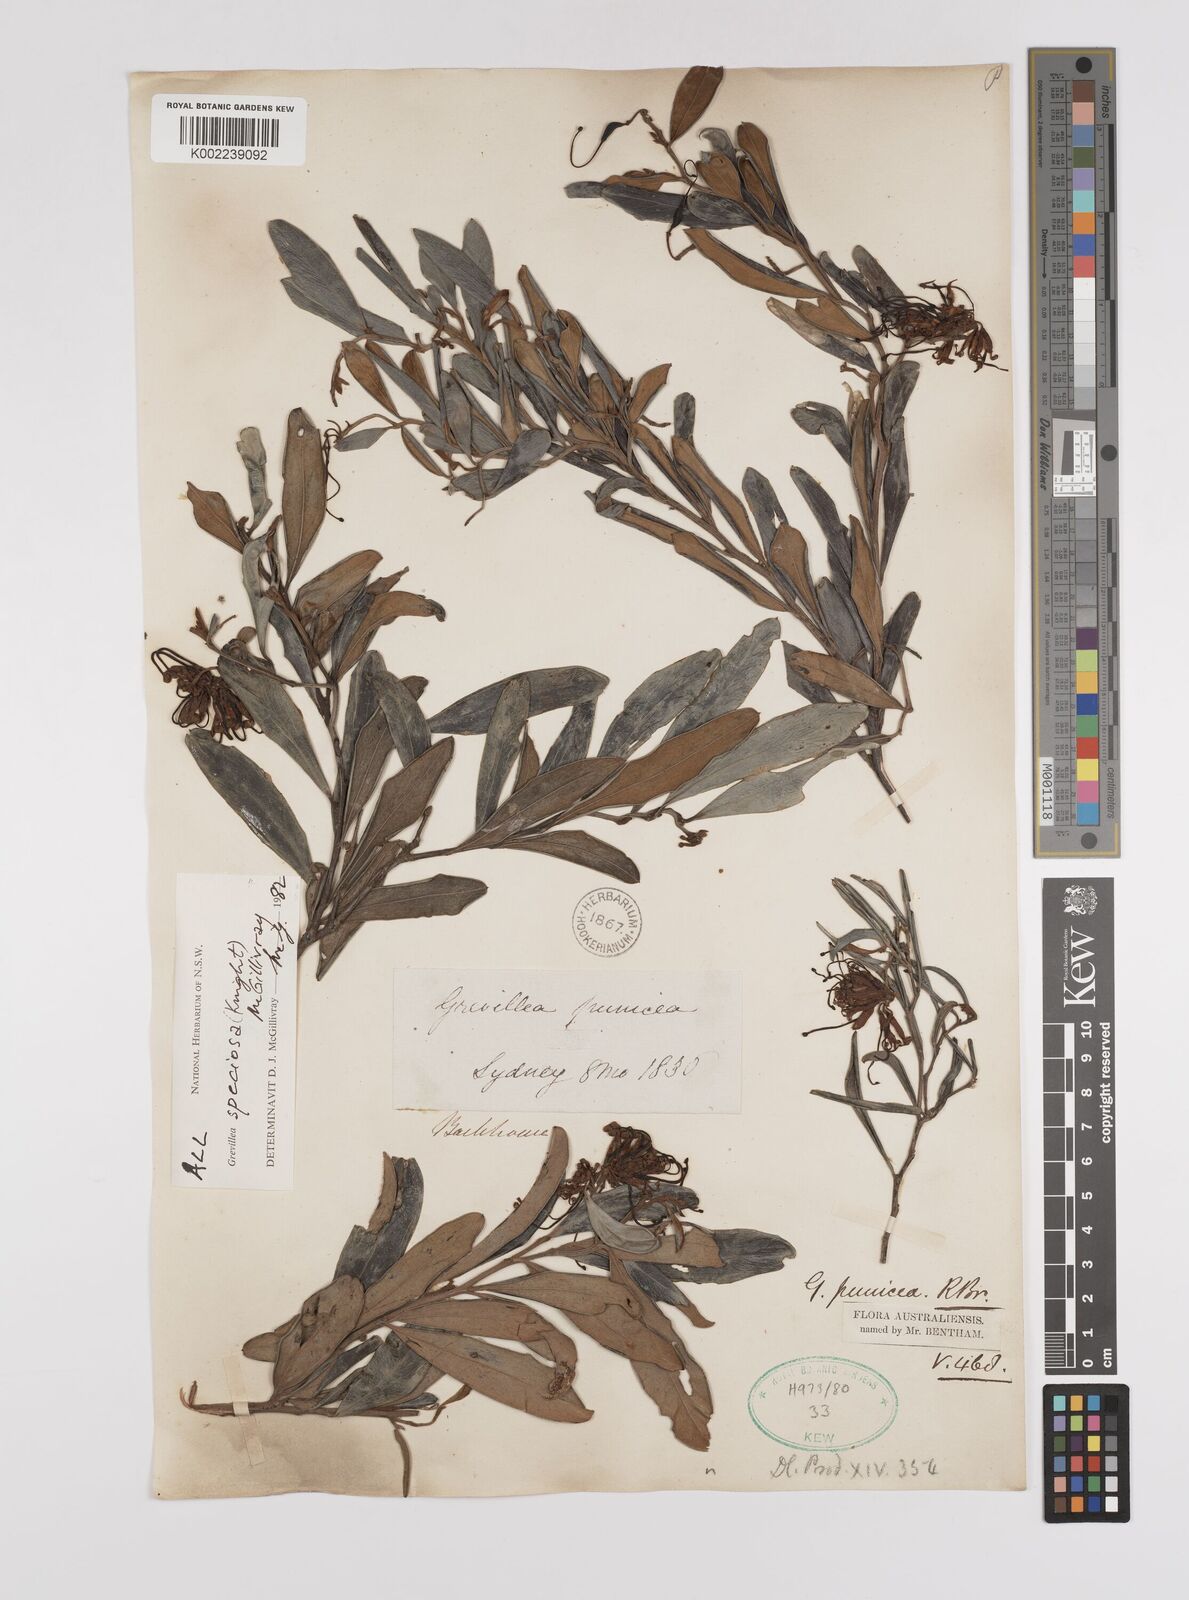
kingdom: Plantae
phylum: Tracheophyta
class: Magnoliopsida
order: Proteales
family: Proteaceae
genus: Grevillea
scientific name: Grevillea speciosa
